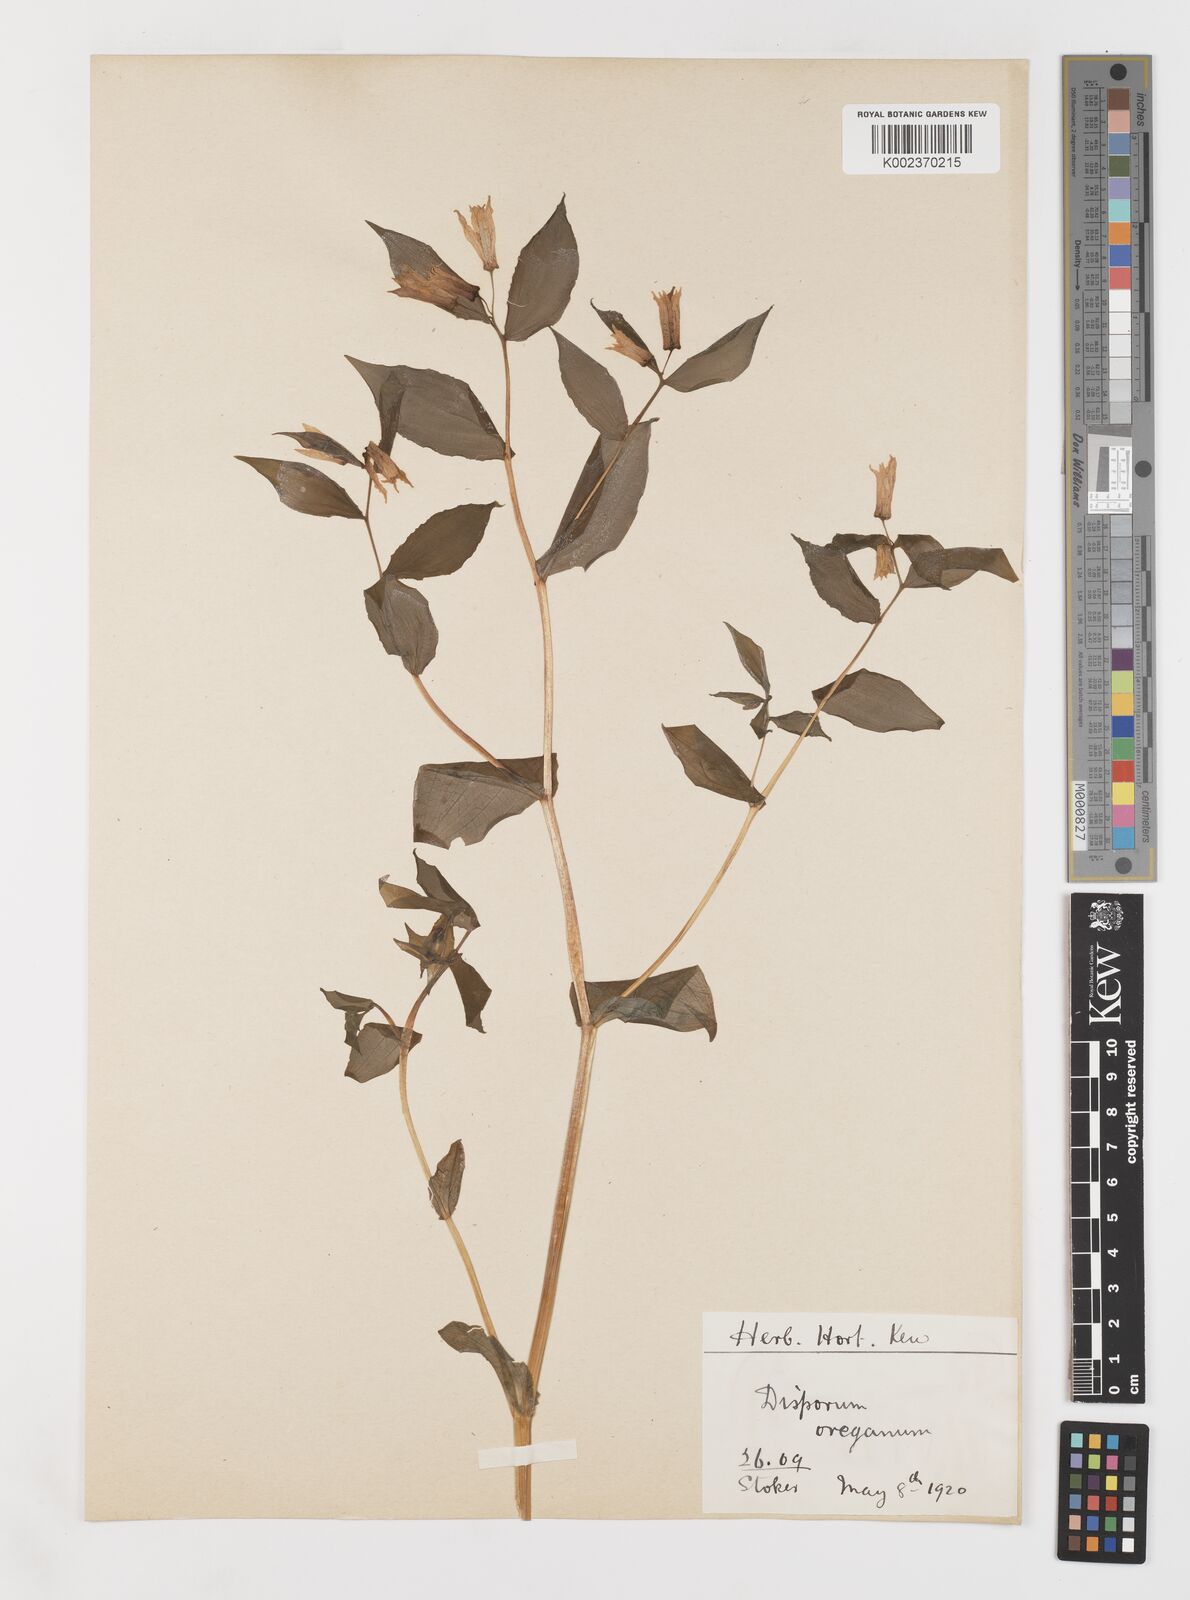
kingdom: Plantae
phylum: Tracheophyta
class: Liliopsida
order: Liliales
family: Liliaceae
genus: Prosartes
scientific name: Prosartes hookeri
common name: Fairy-bells
